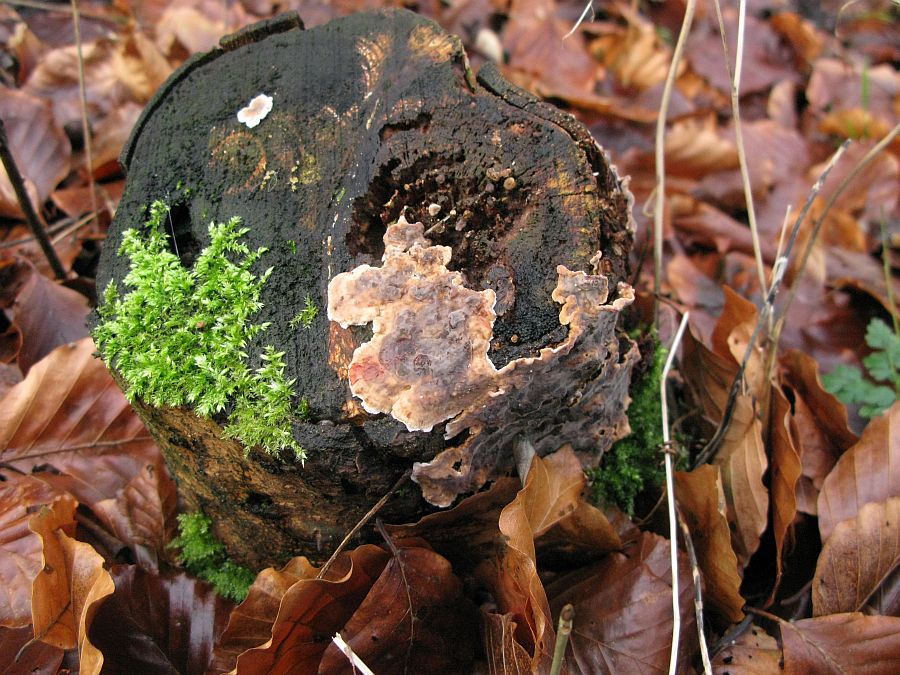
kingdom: Fungi
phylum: Basidiomycota
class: Agaricomycetes
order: Russulales
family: Stereaceae
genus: Stereum
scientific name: Stereum rugosum
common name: rynket lædersvamp
